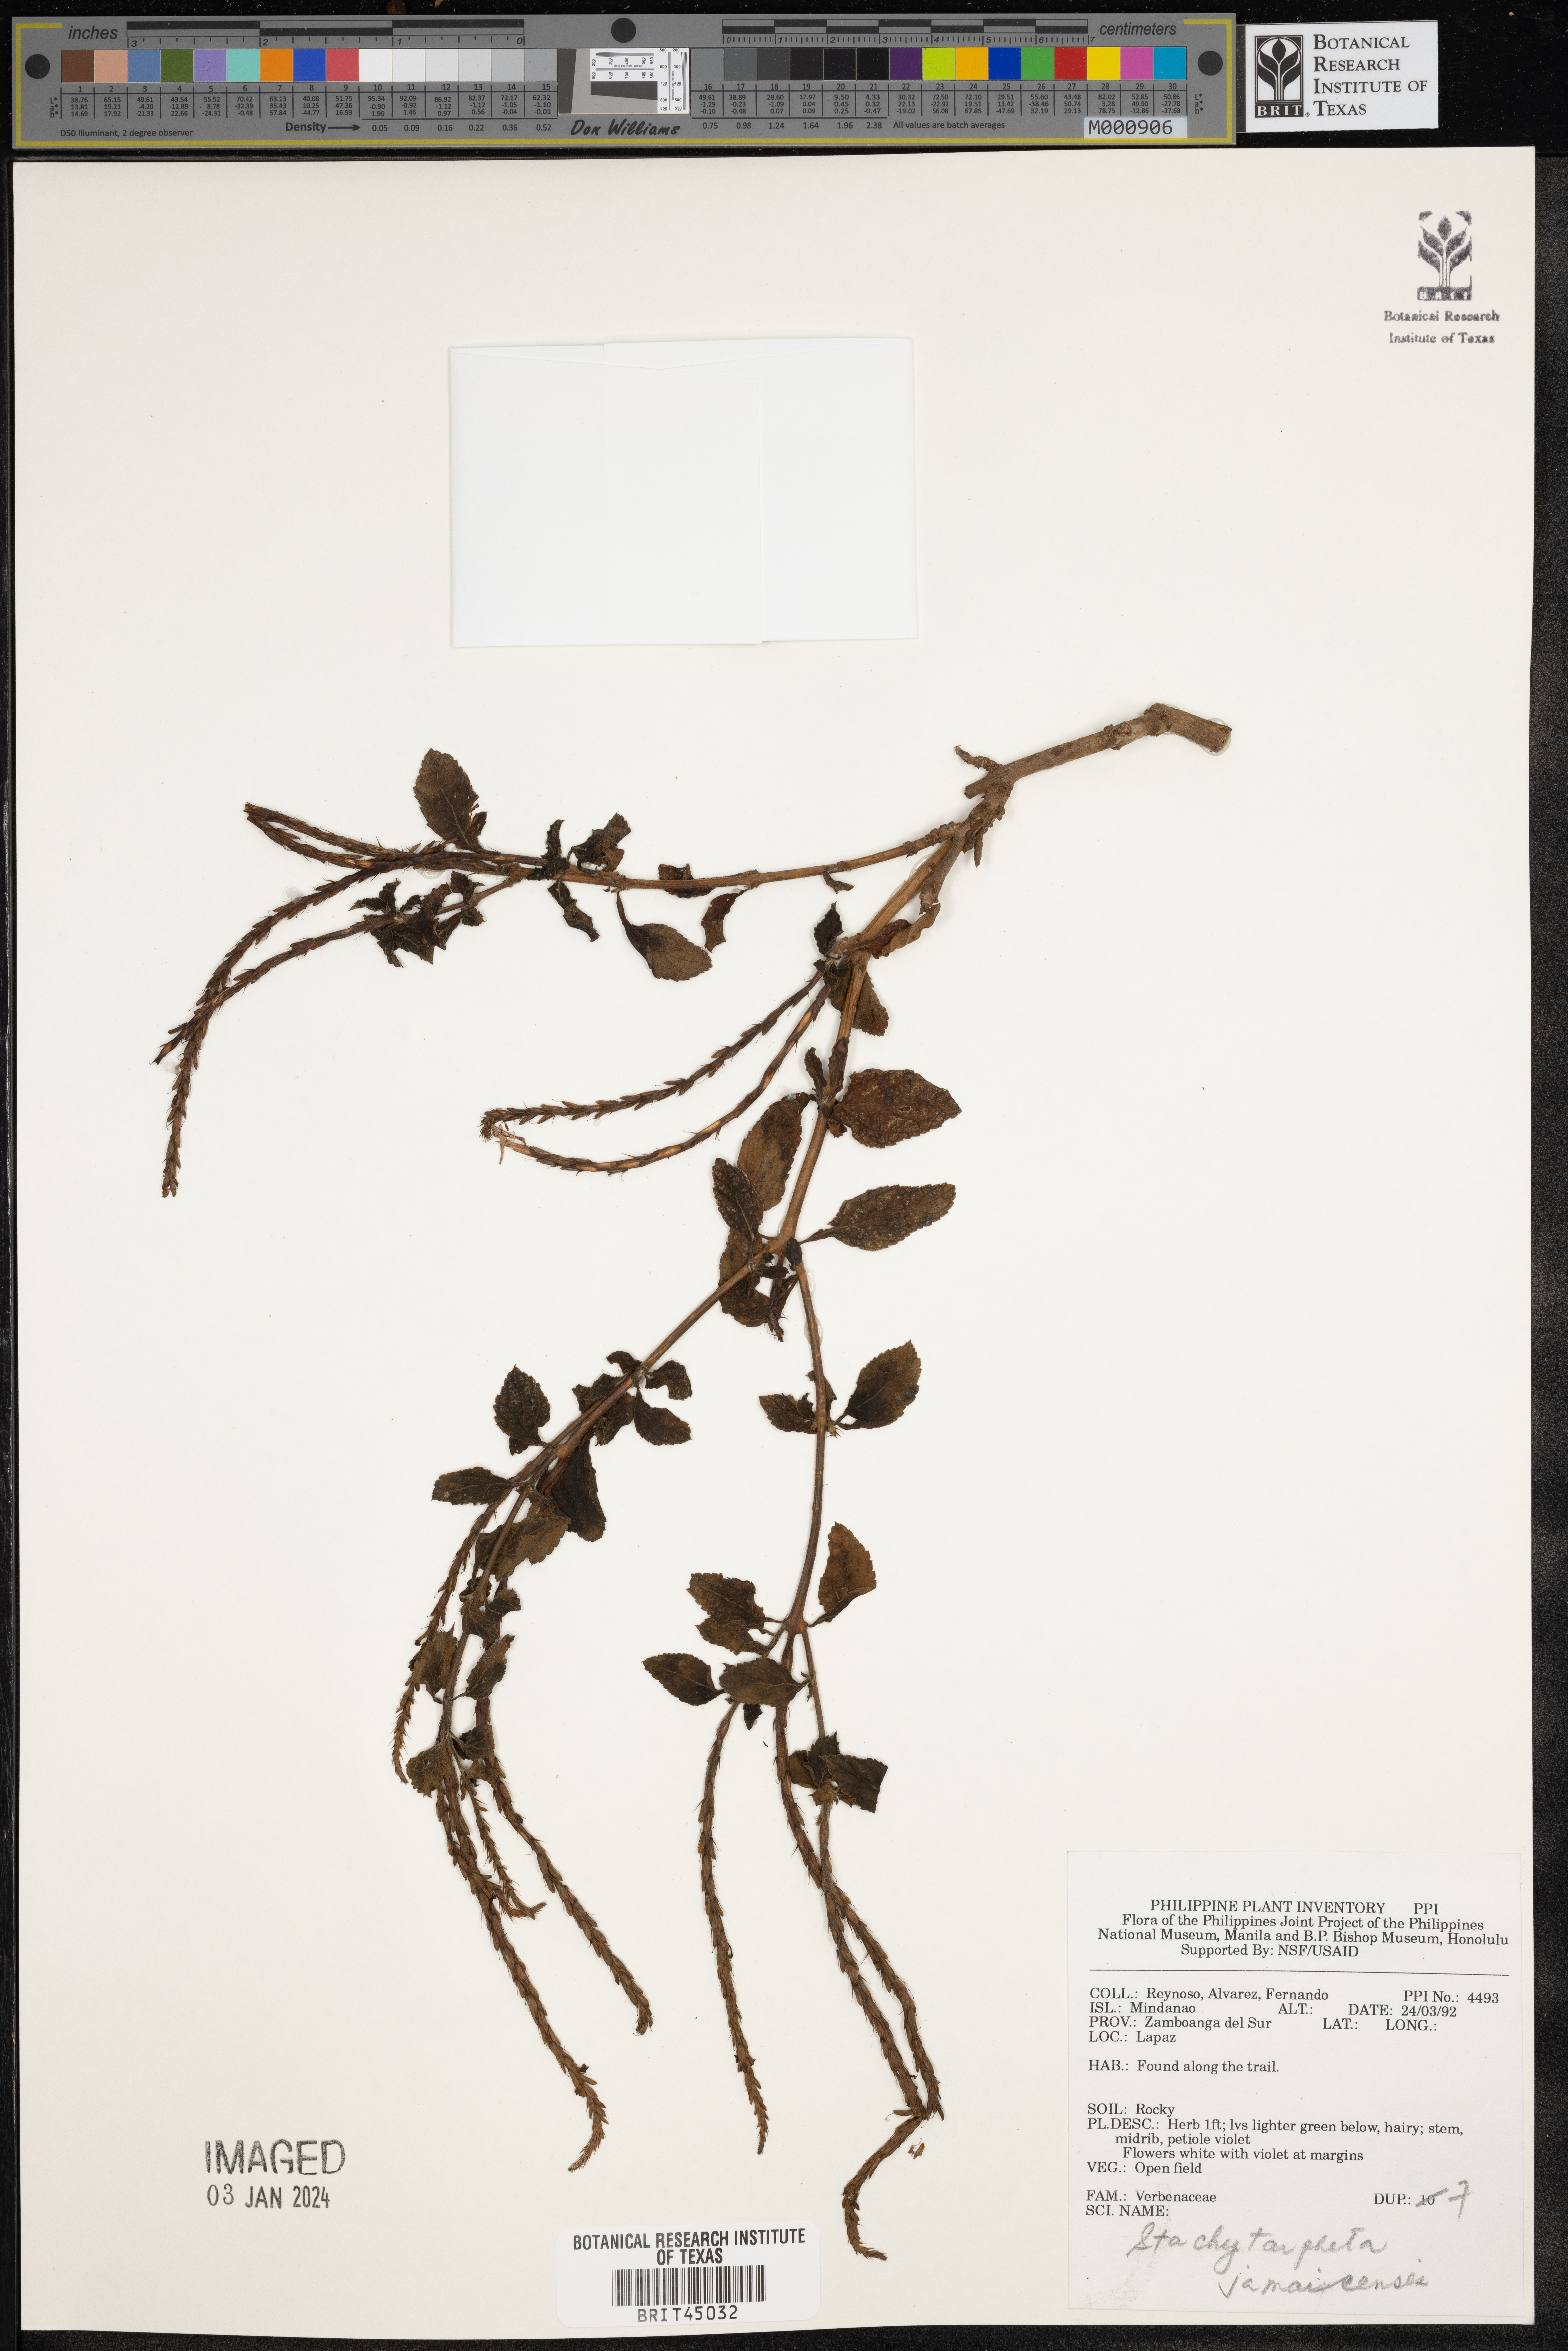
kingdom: Plantae
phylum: Tracheophyta
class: Magnoliopsida
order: Lamiales
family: Verbenaceae
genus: Stachytarpheta
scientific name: Stachytarpheta jamaicensis
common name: Light-blue snakeweed
